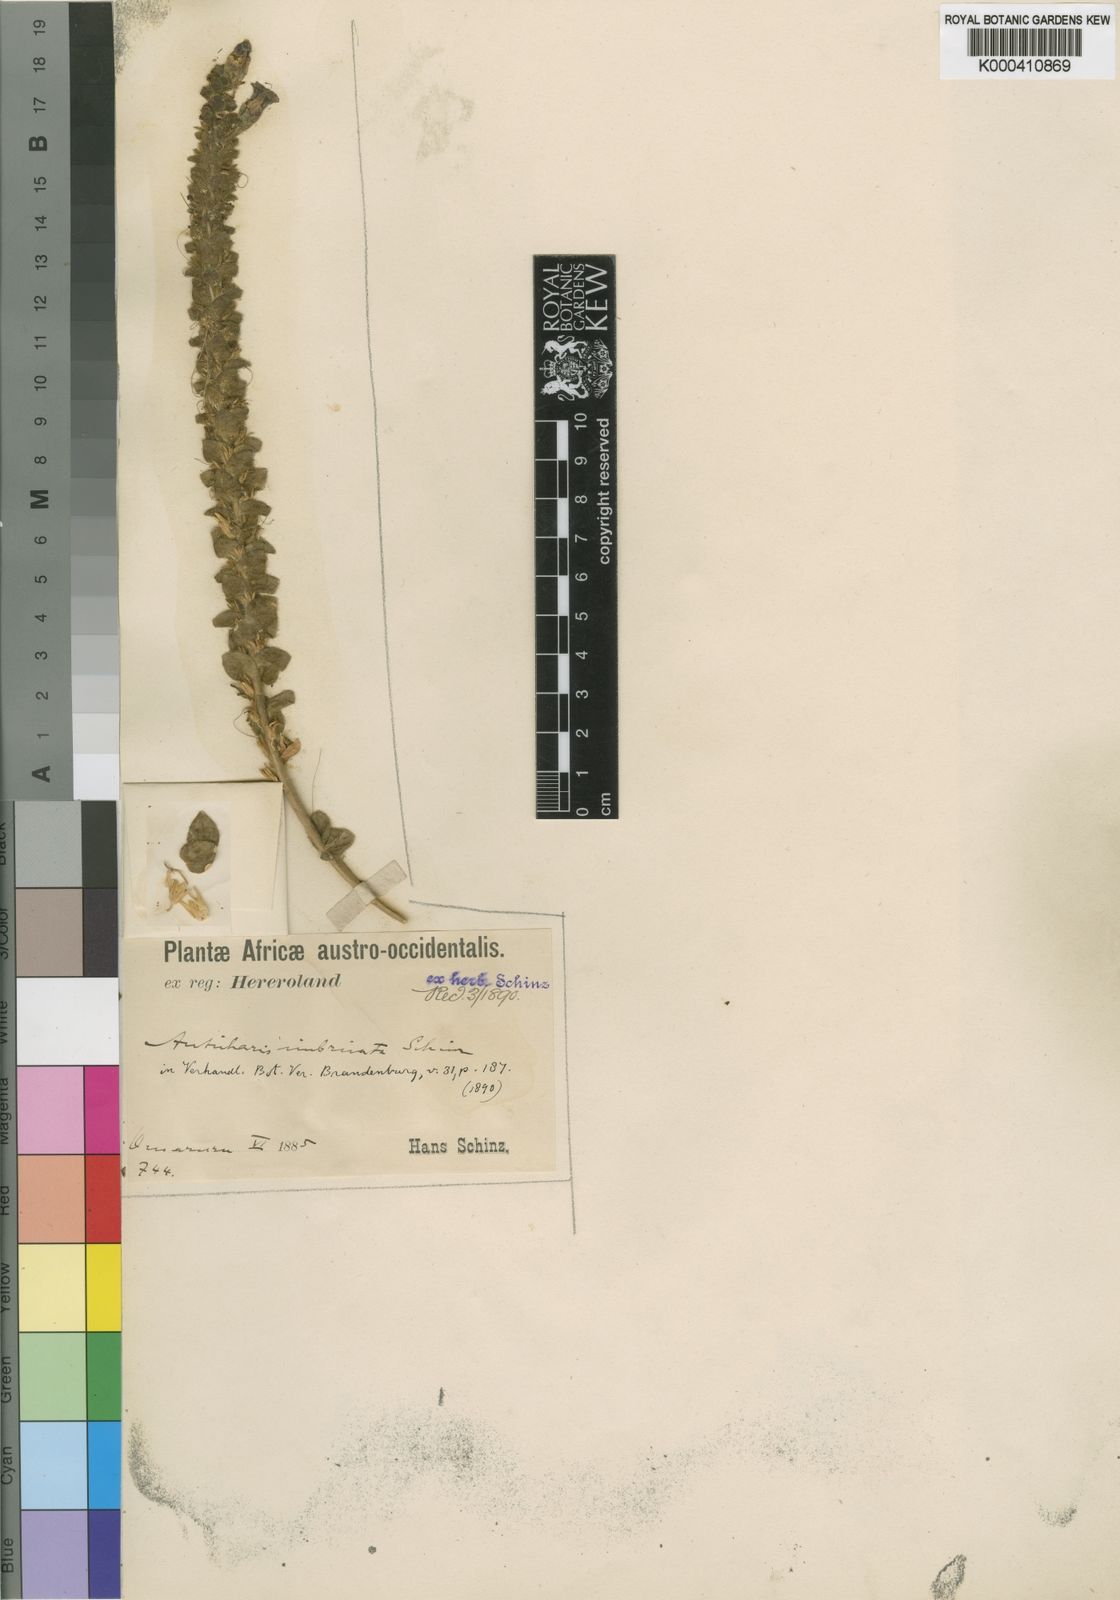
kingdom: Plantae
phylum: Tracheophyta
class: Magnoliopsida
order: Lamiales
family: Scrophulariaceae
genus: Anticharis
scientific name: Anticharis imbricata
